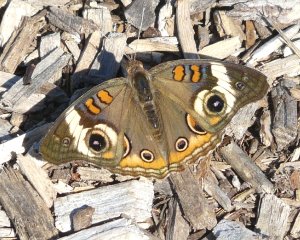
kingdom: Animalia
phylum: Arthropoda
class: Insecta
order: Lepidoptera
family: Nymphalidae
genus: Junonia
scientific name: Junonia coenia
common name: Common Buckeye
